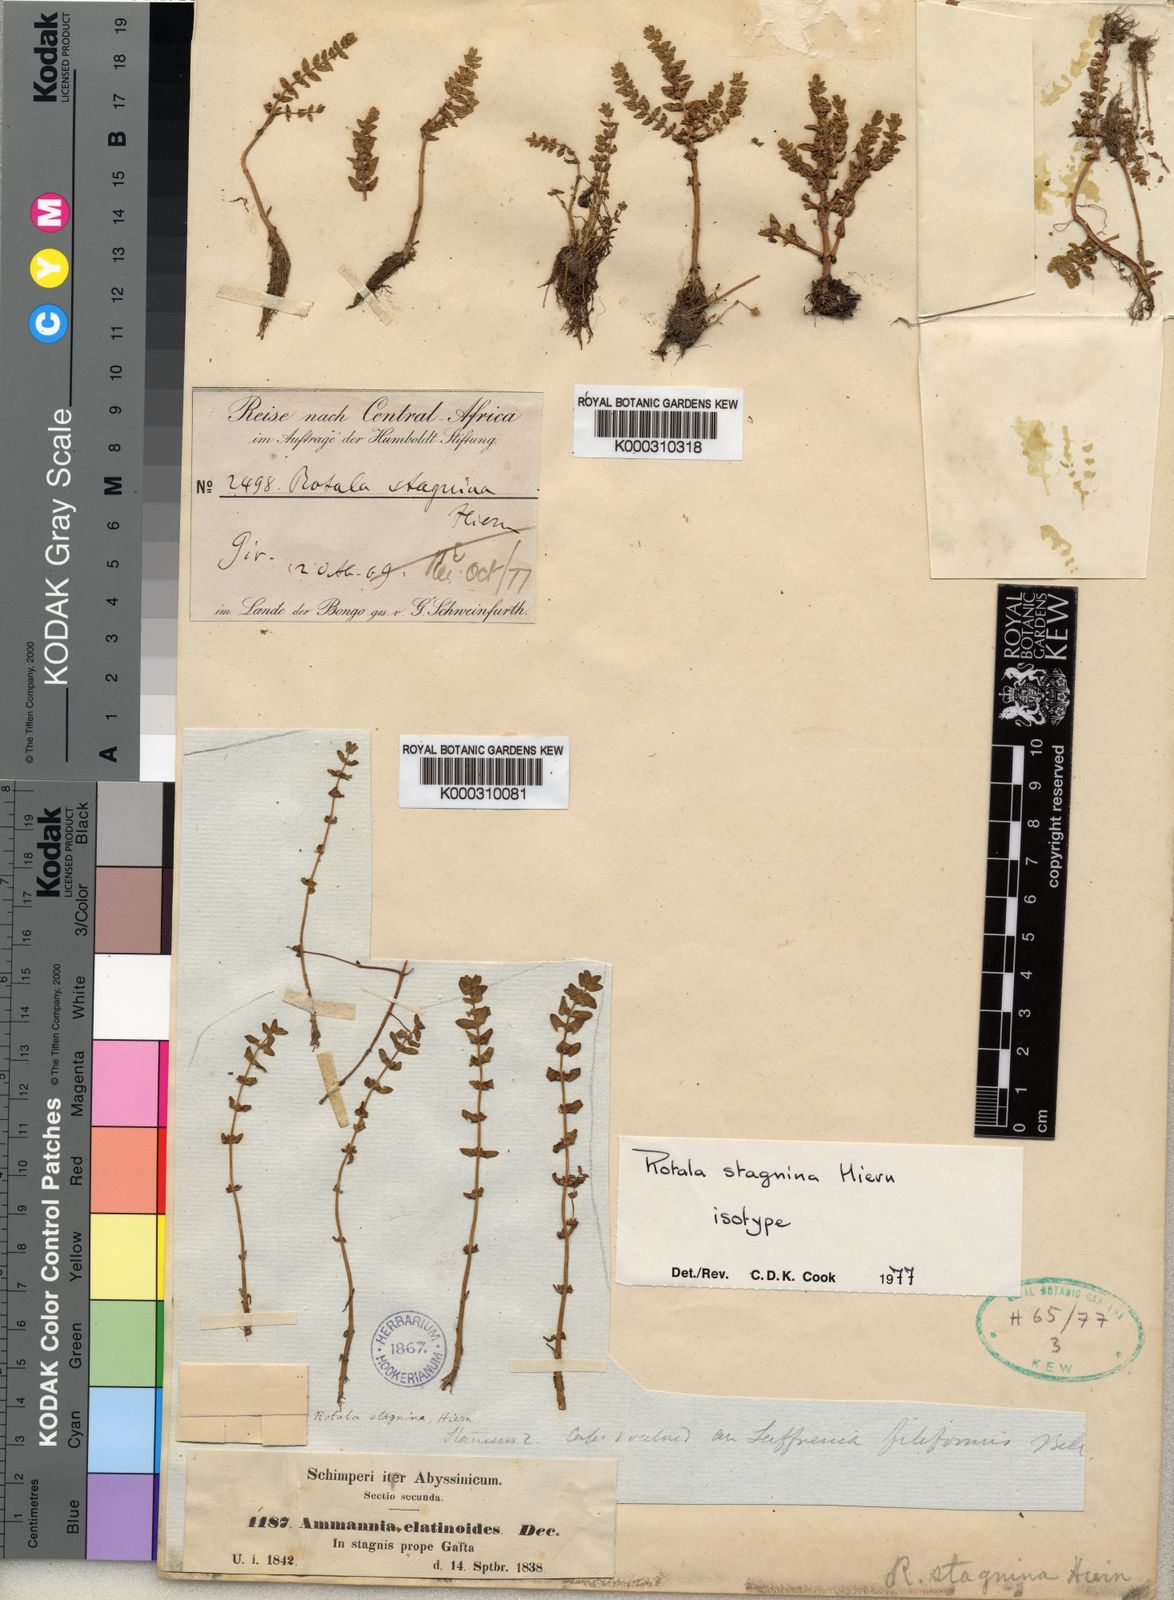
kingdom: Plantae
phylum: Tracheophyta
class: Magnoliopsida
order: Myrtales
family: Lythraceae
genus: Rotala
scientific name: Rotala stagnina
